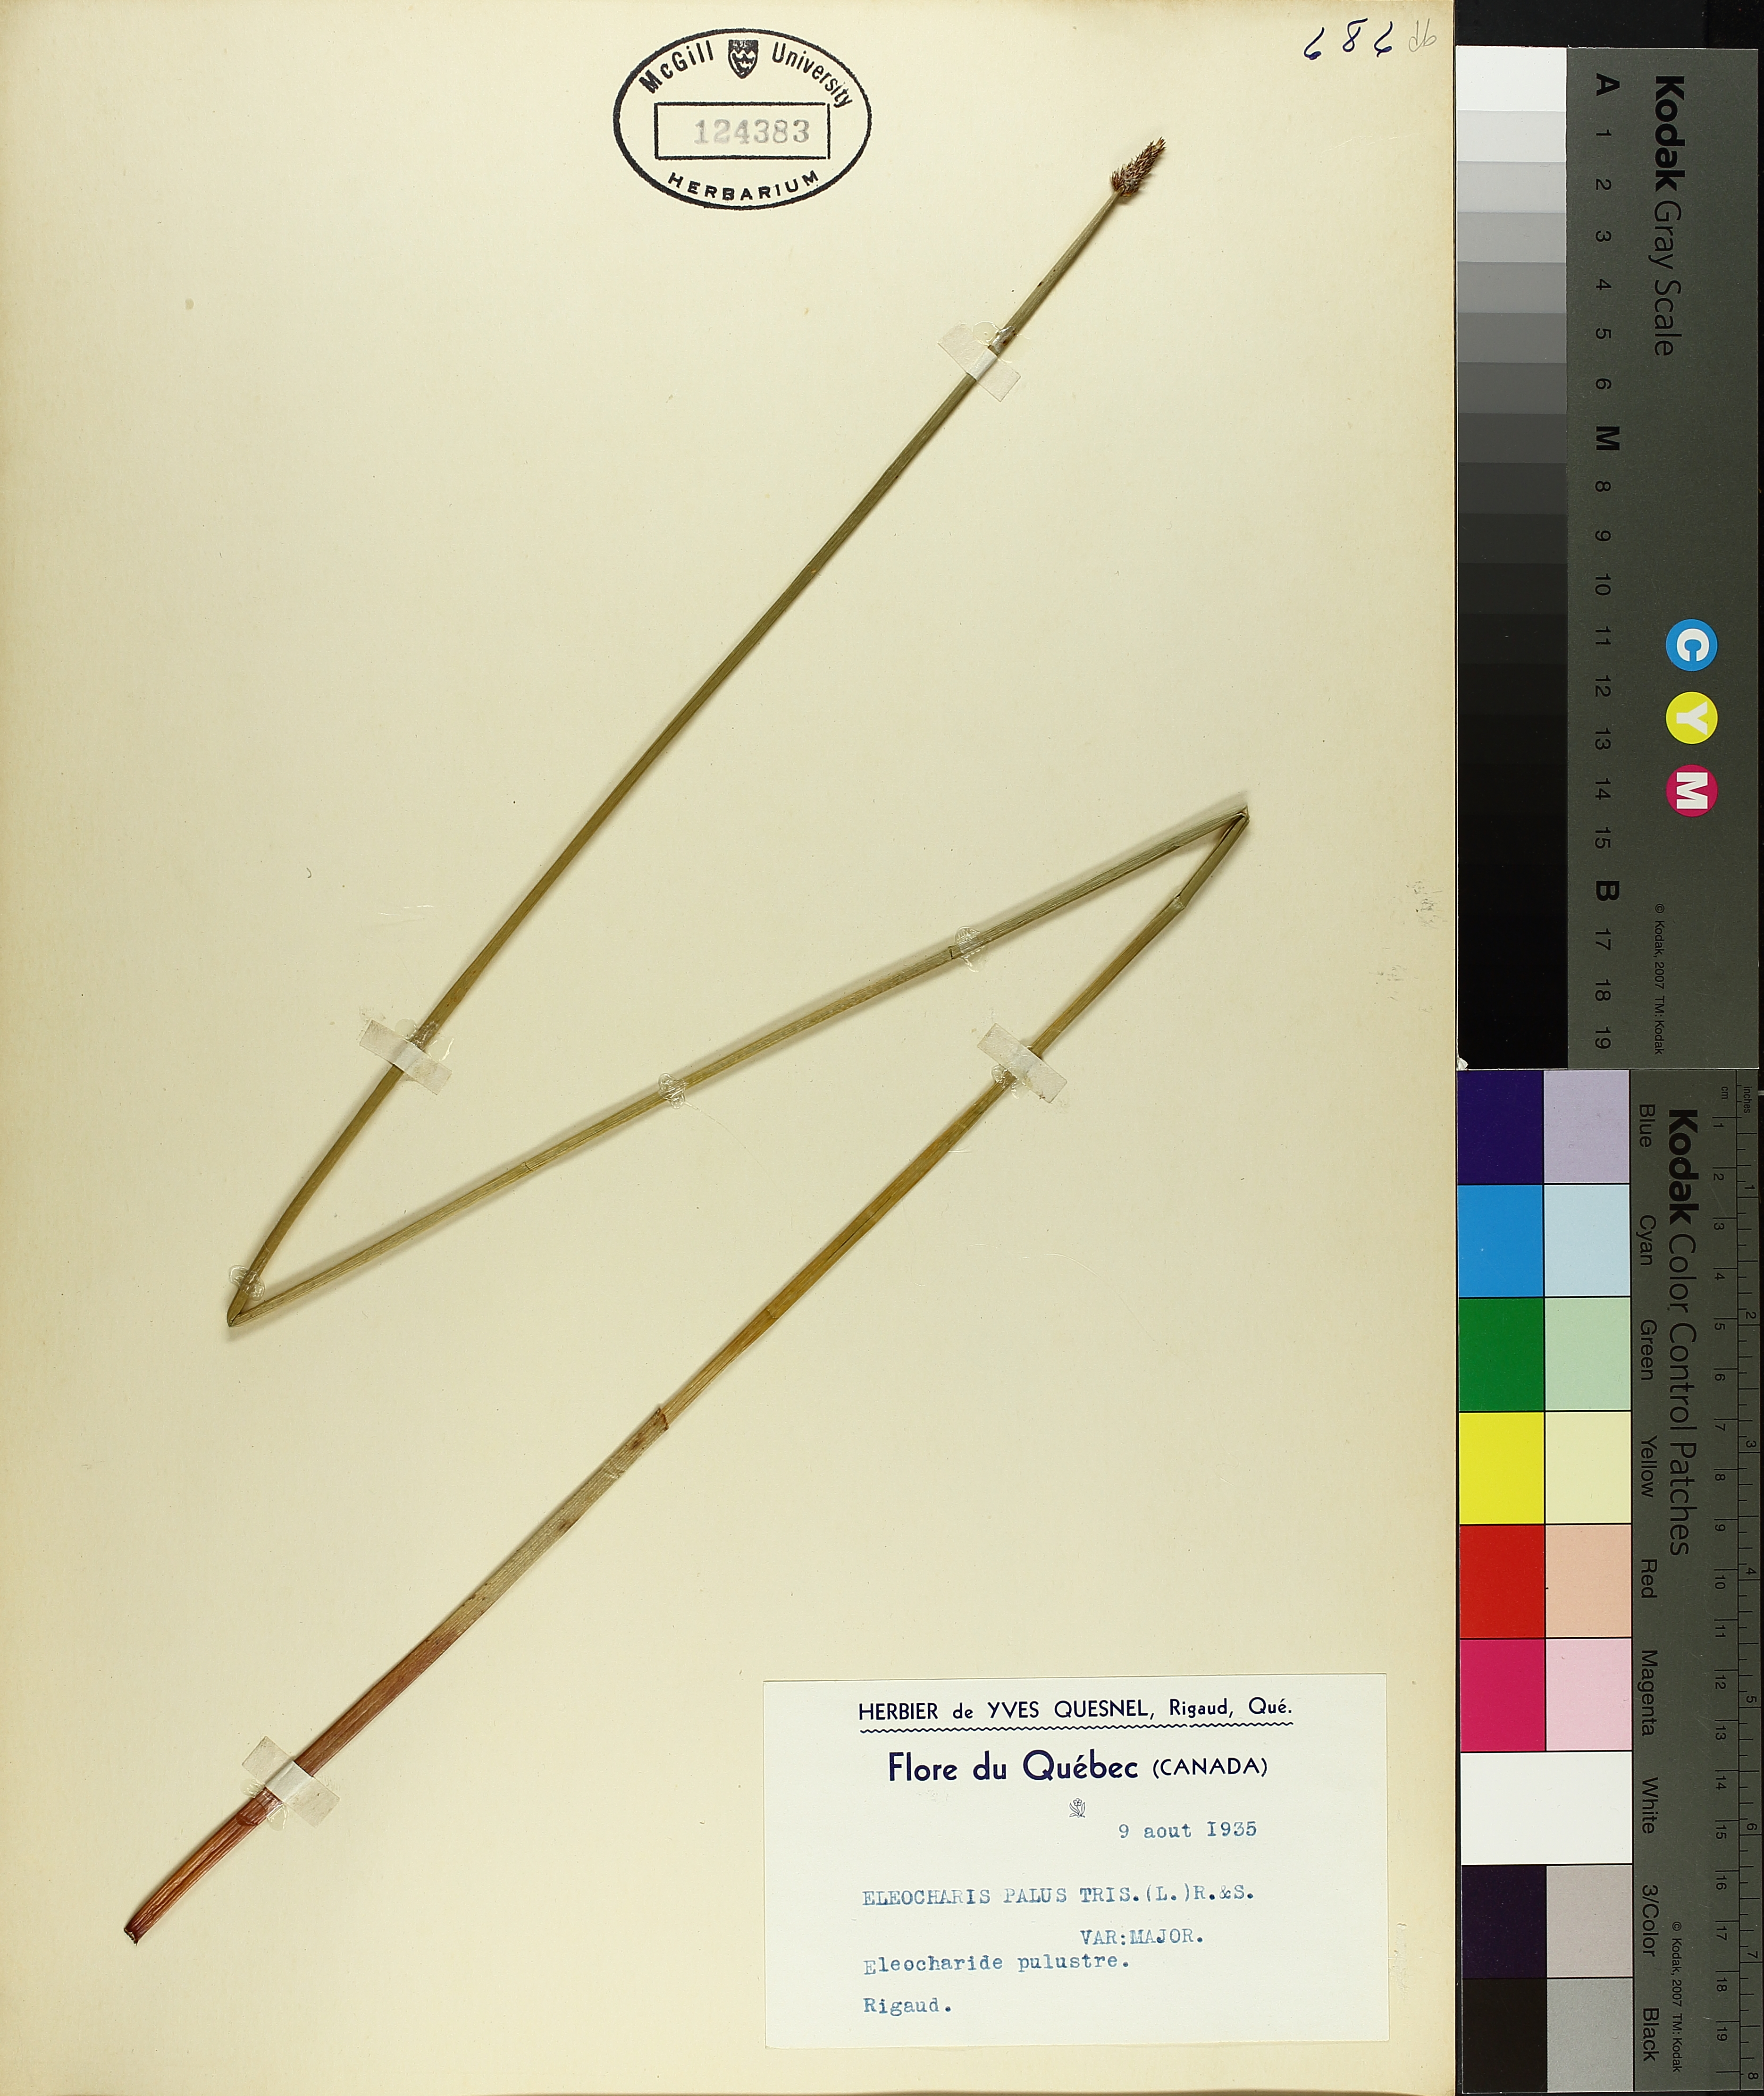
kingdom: Plantae
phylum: Tracheophyta
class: Liliopsida
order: Poales
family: Cyperaceae
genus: Eleocharis
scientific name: Eleocharis palustris
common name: Common spike-rush
